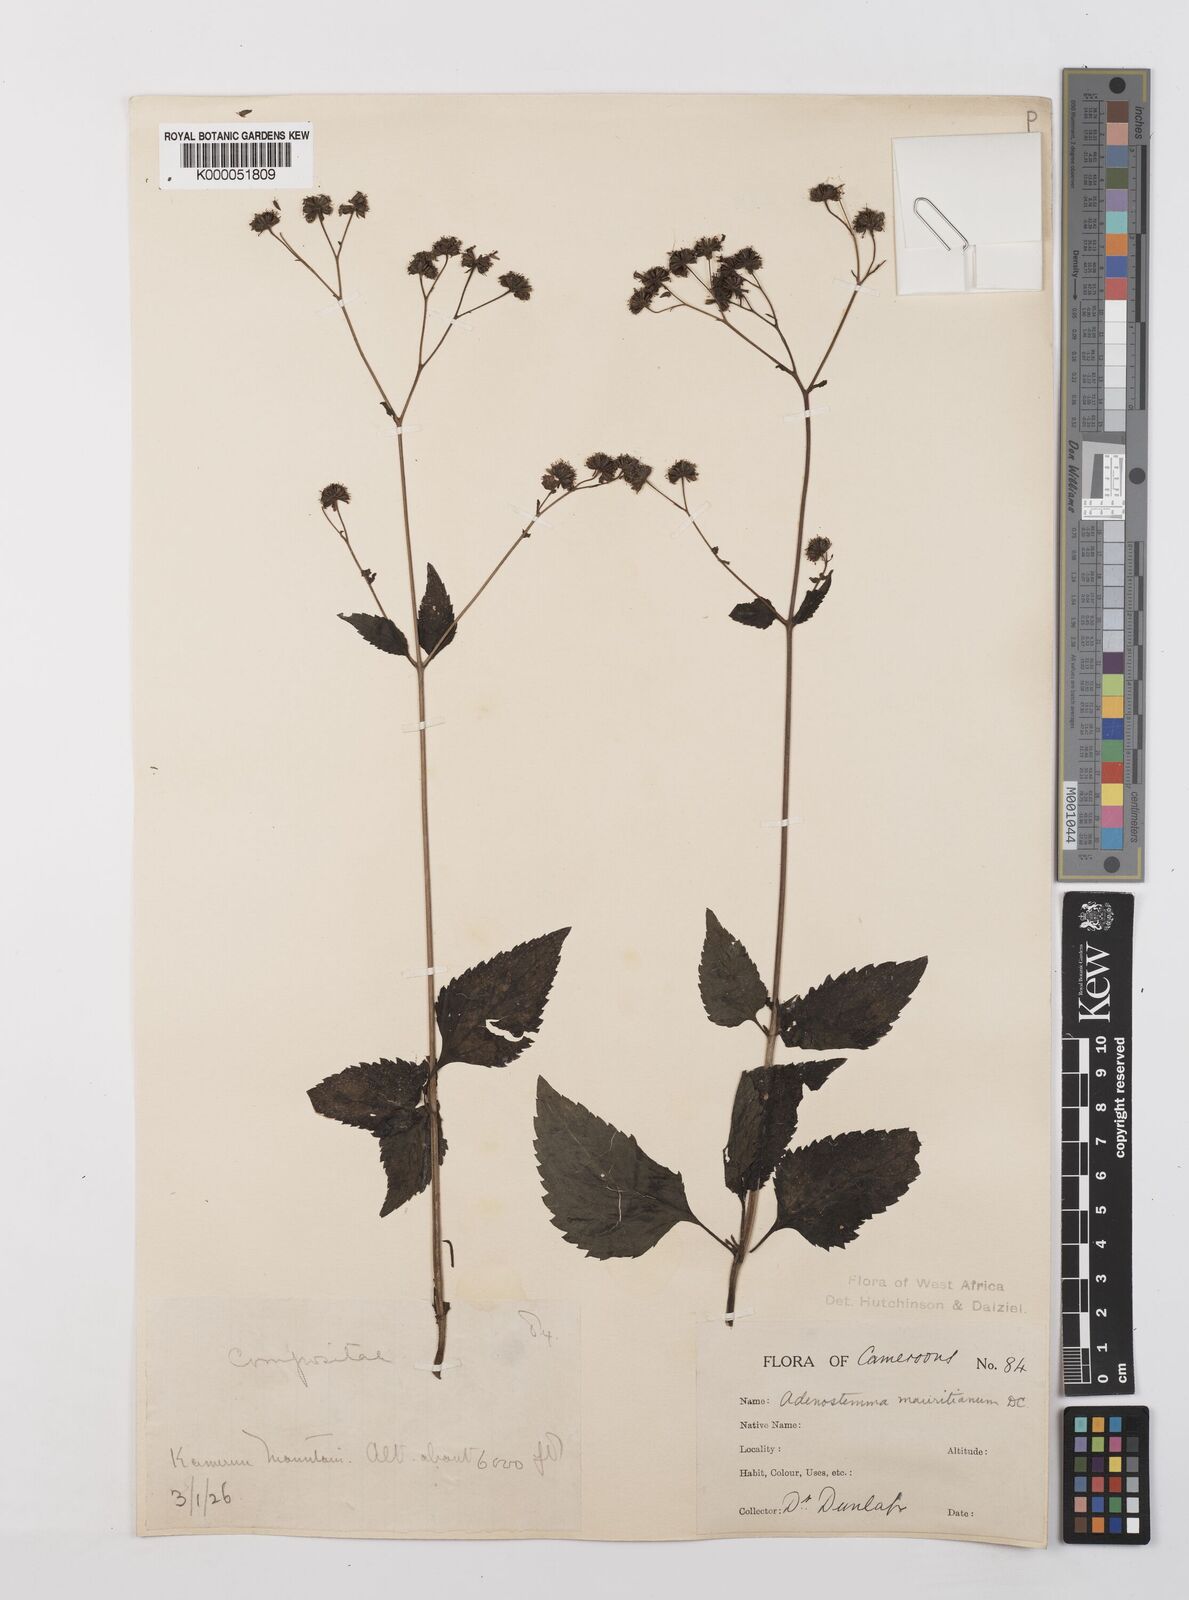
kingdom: Plantae
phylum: Tracheophyta
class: Magnoliopsida
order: Asterales
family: Asteraceae
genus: Adenostemma
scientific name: Adenostemma mauritianum
